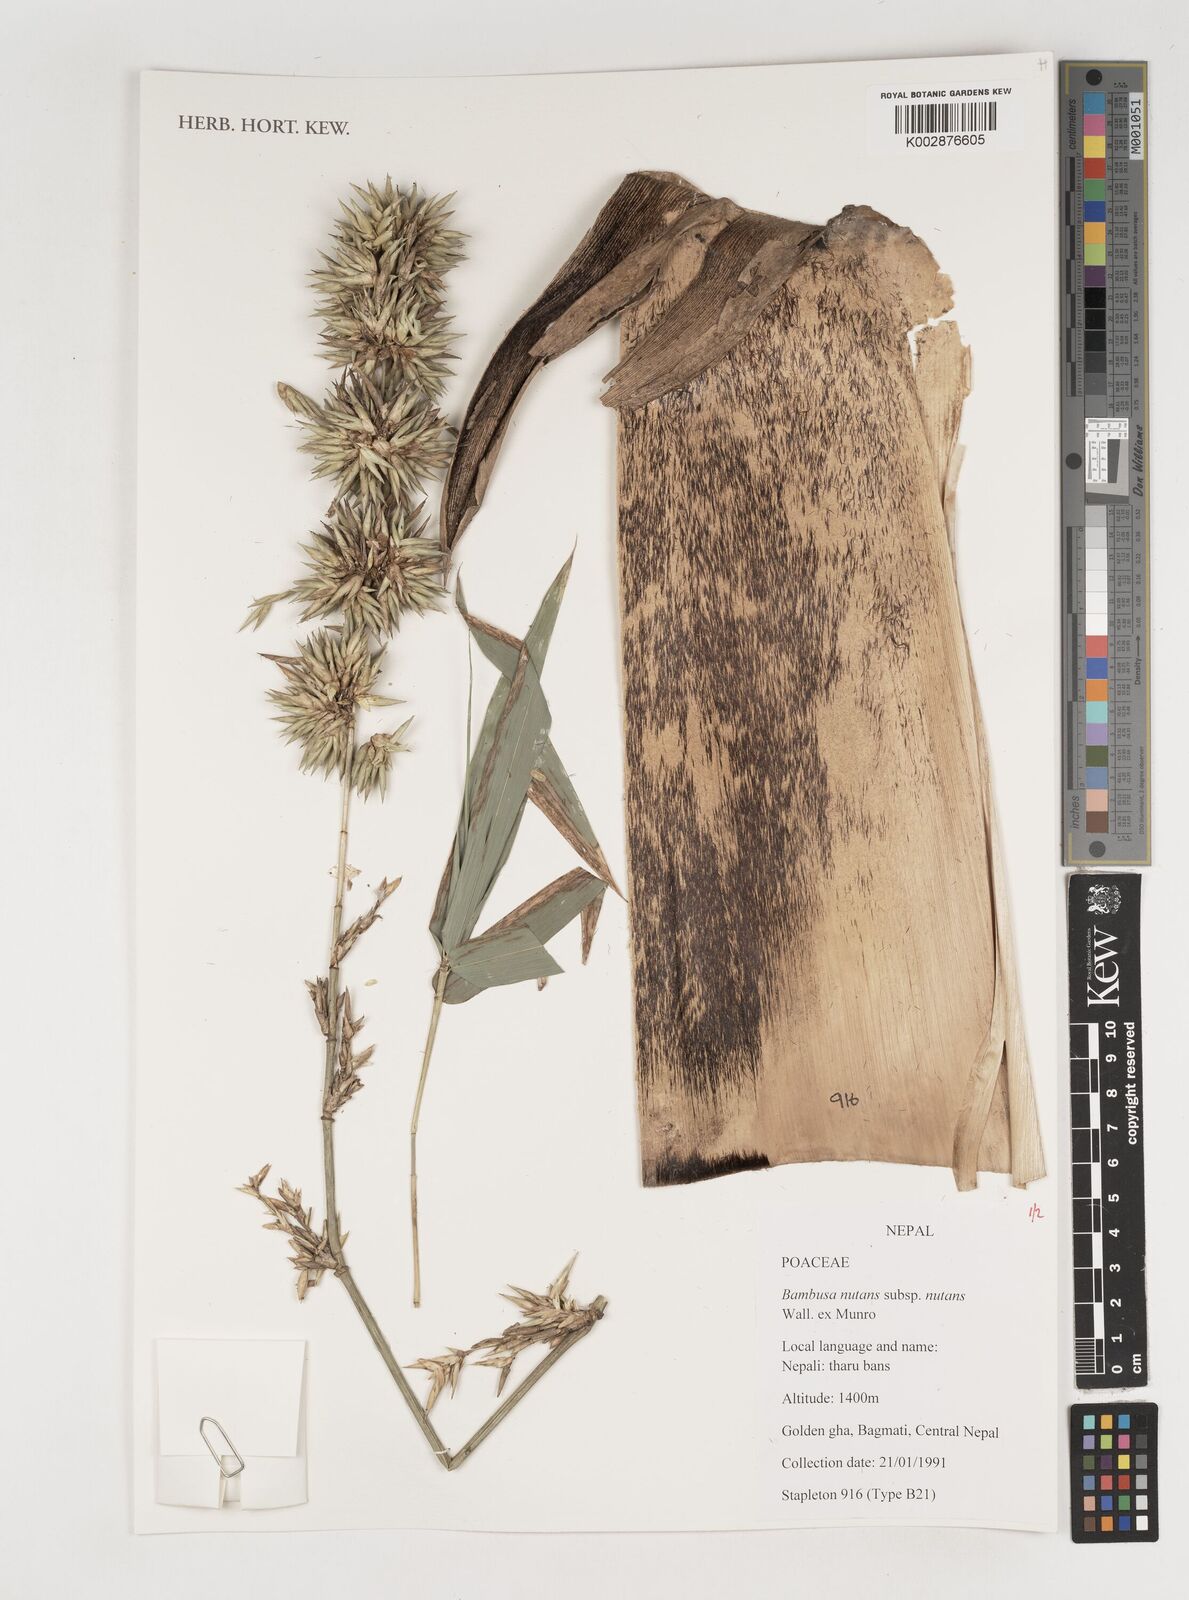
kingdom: Plantae
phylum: Tracheophyta
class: Liliopsida
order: Poales
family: Poaceae
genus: Bambusa
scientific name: Bambusa nutans
